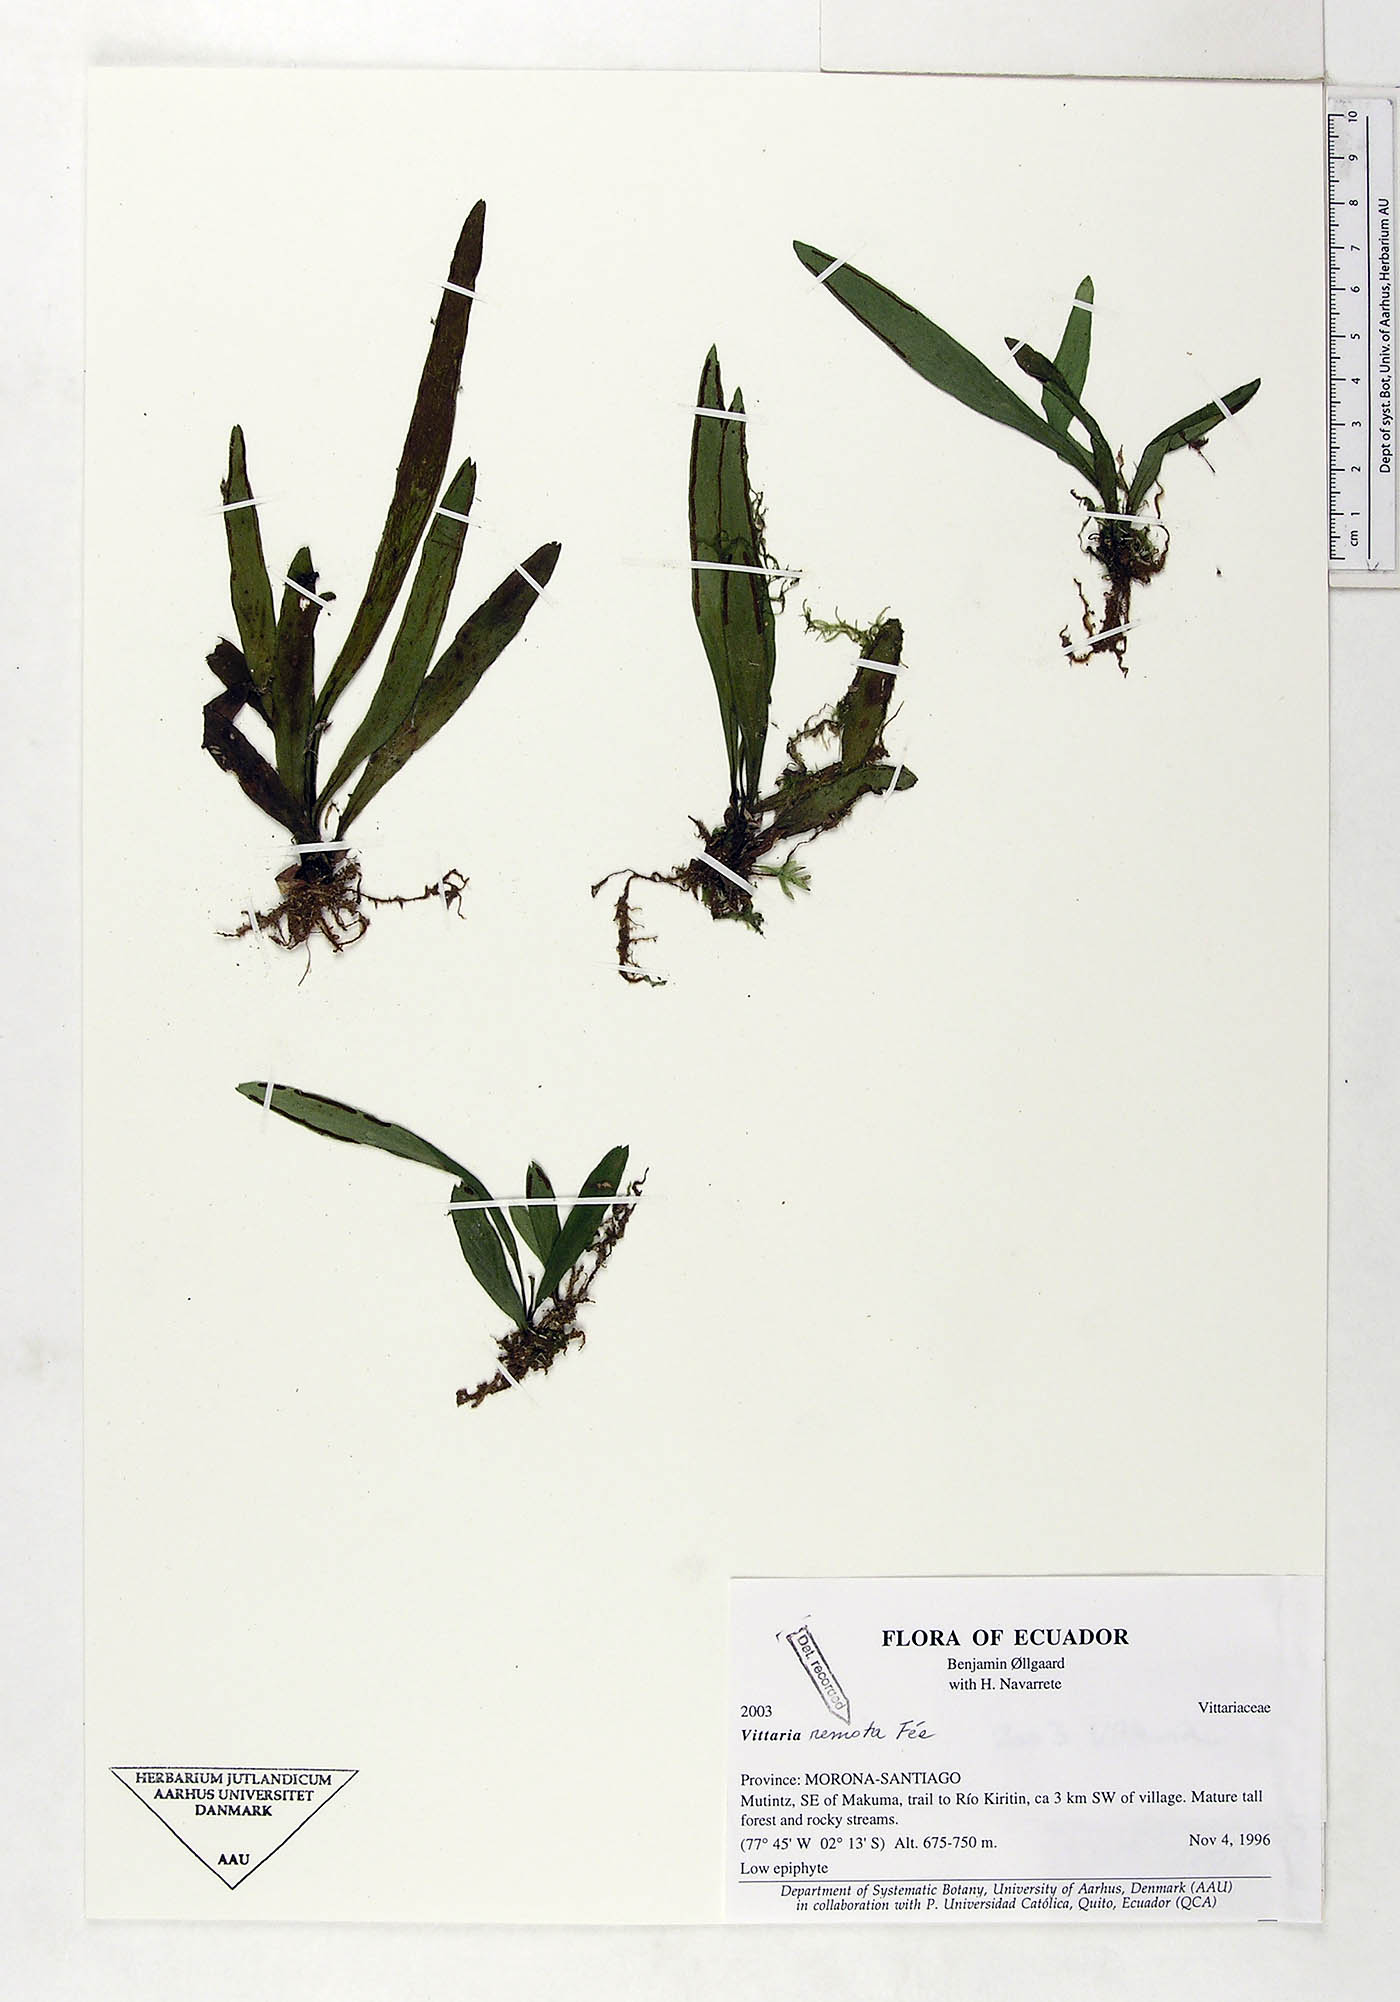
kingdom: Plantae
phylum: Tracheophyta
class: Polypodiopsida
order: Polypodiales
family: Pteridaceae
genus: Radiovittaria
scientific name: Radiovittaria remota
